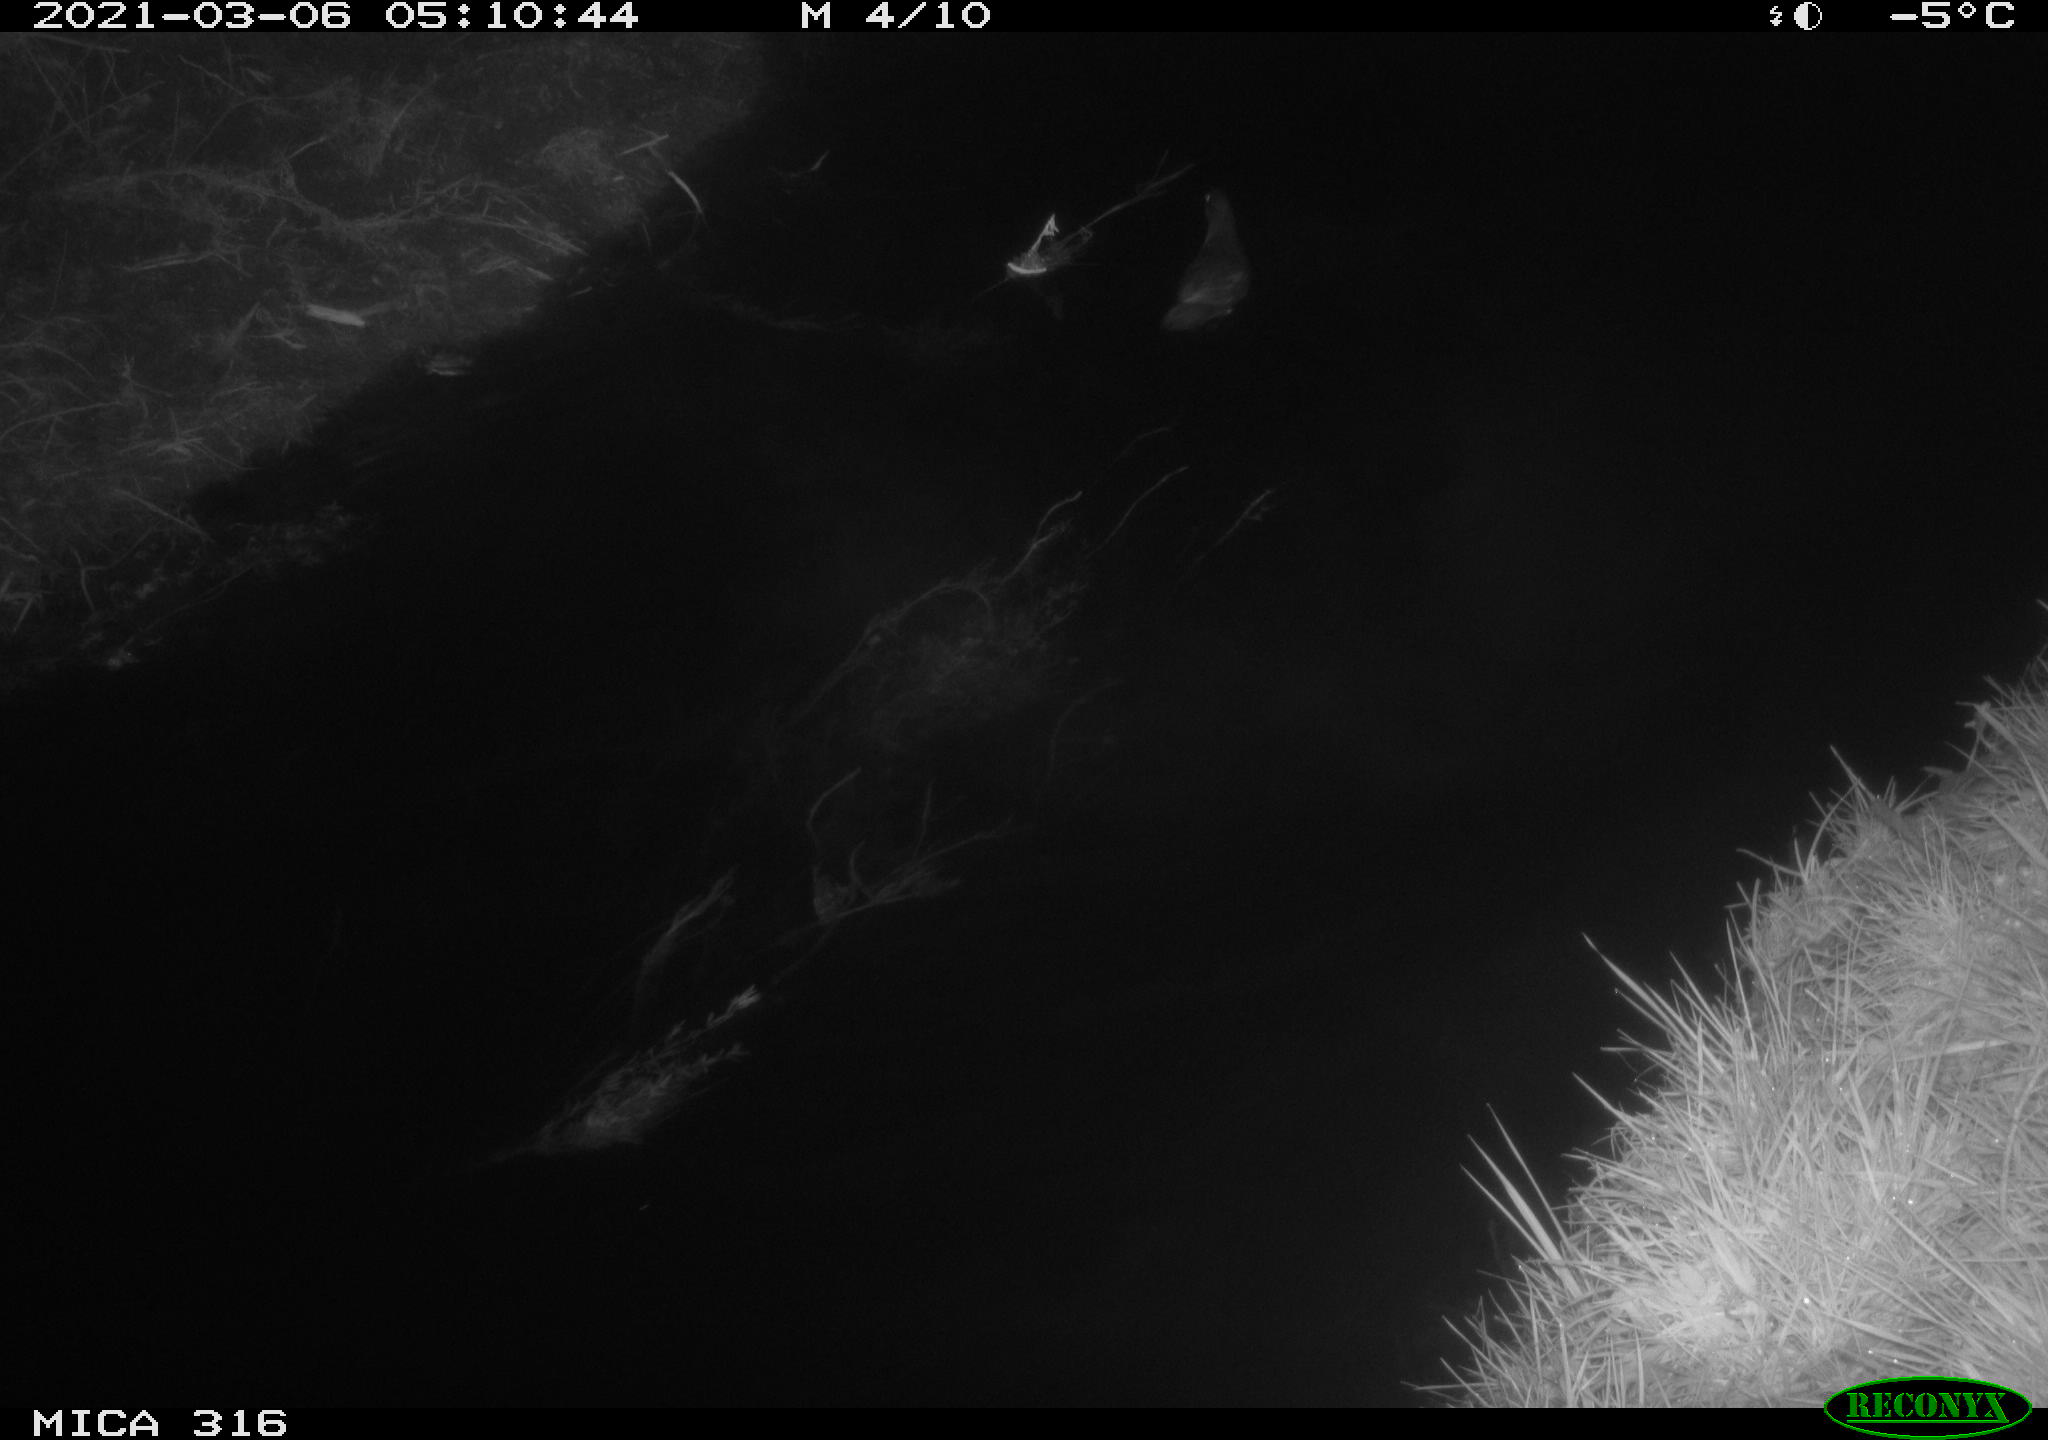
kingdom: Animalia
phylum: Chordata
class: Aves
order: Gruiformes
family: Rallidae
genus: Gallinula
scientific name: Gallinula chloropus
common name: Common moorhen
